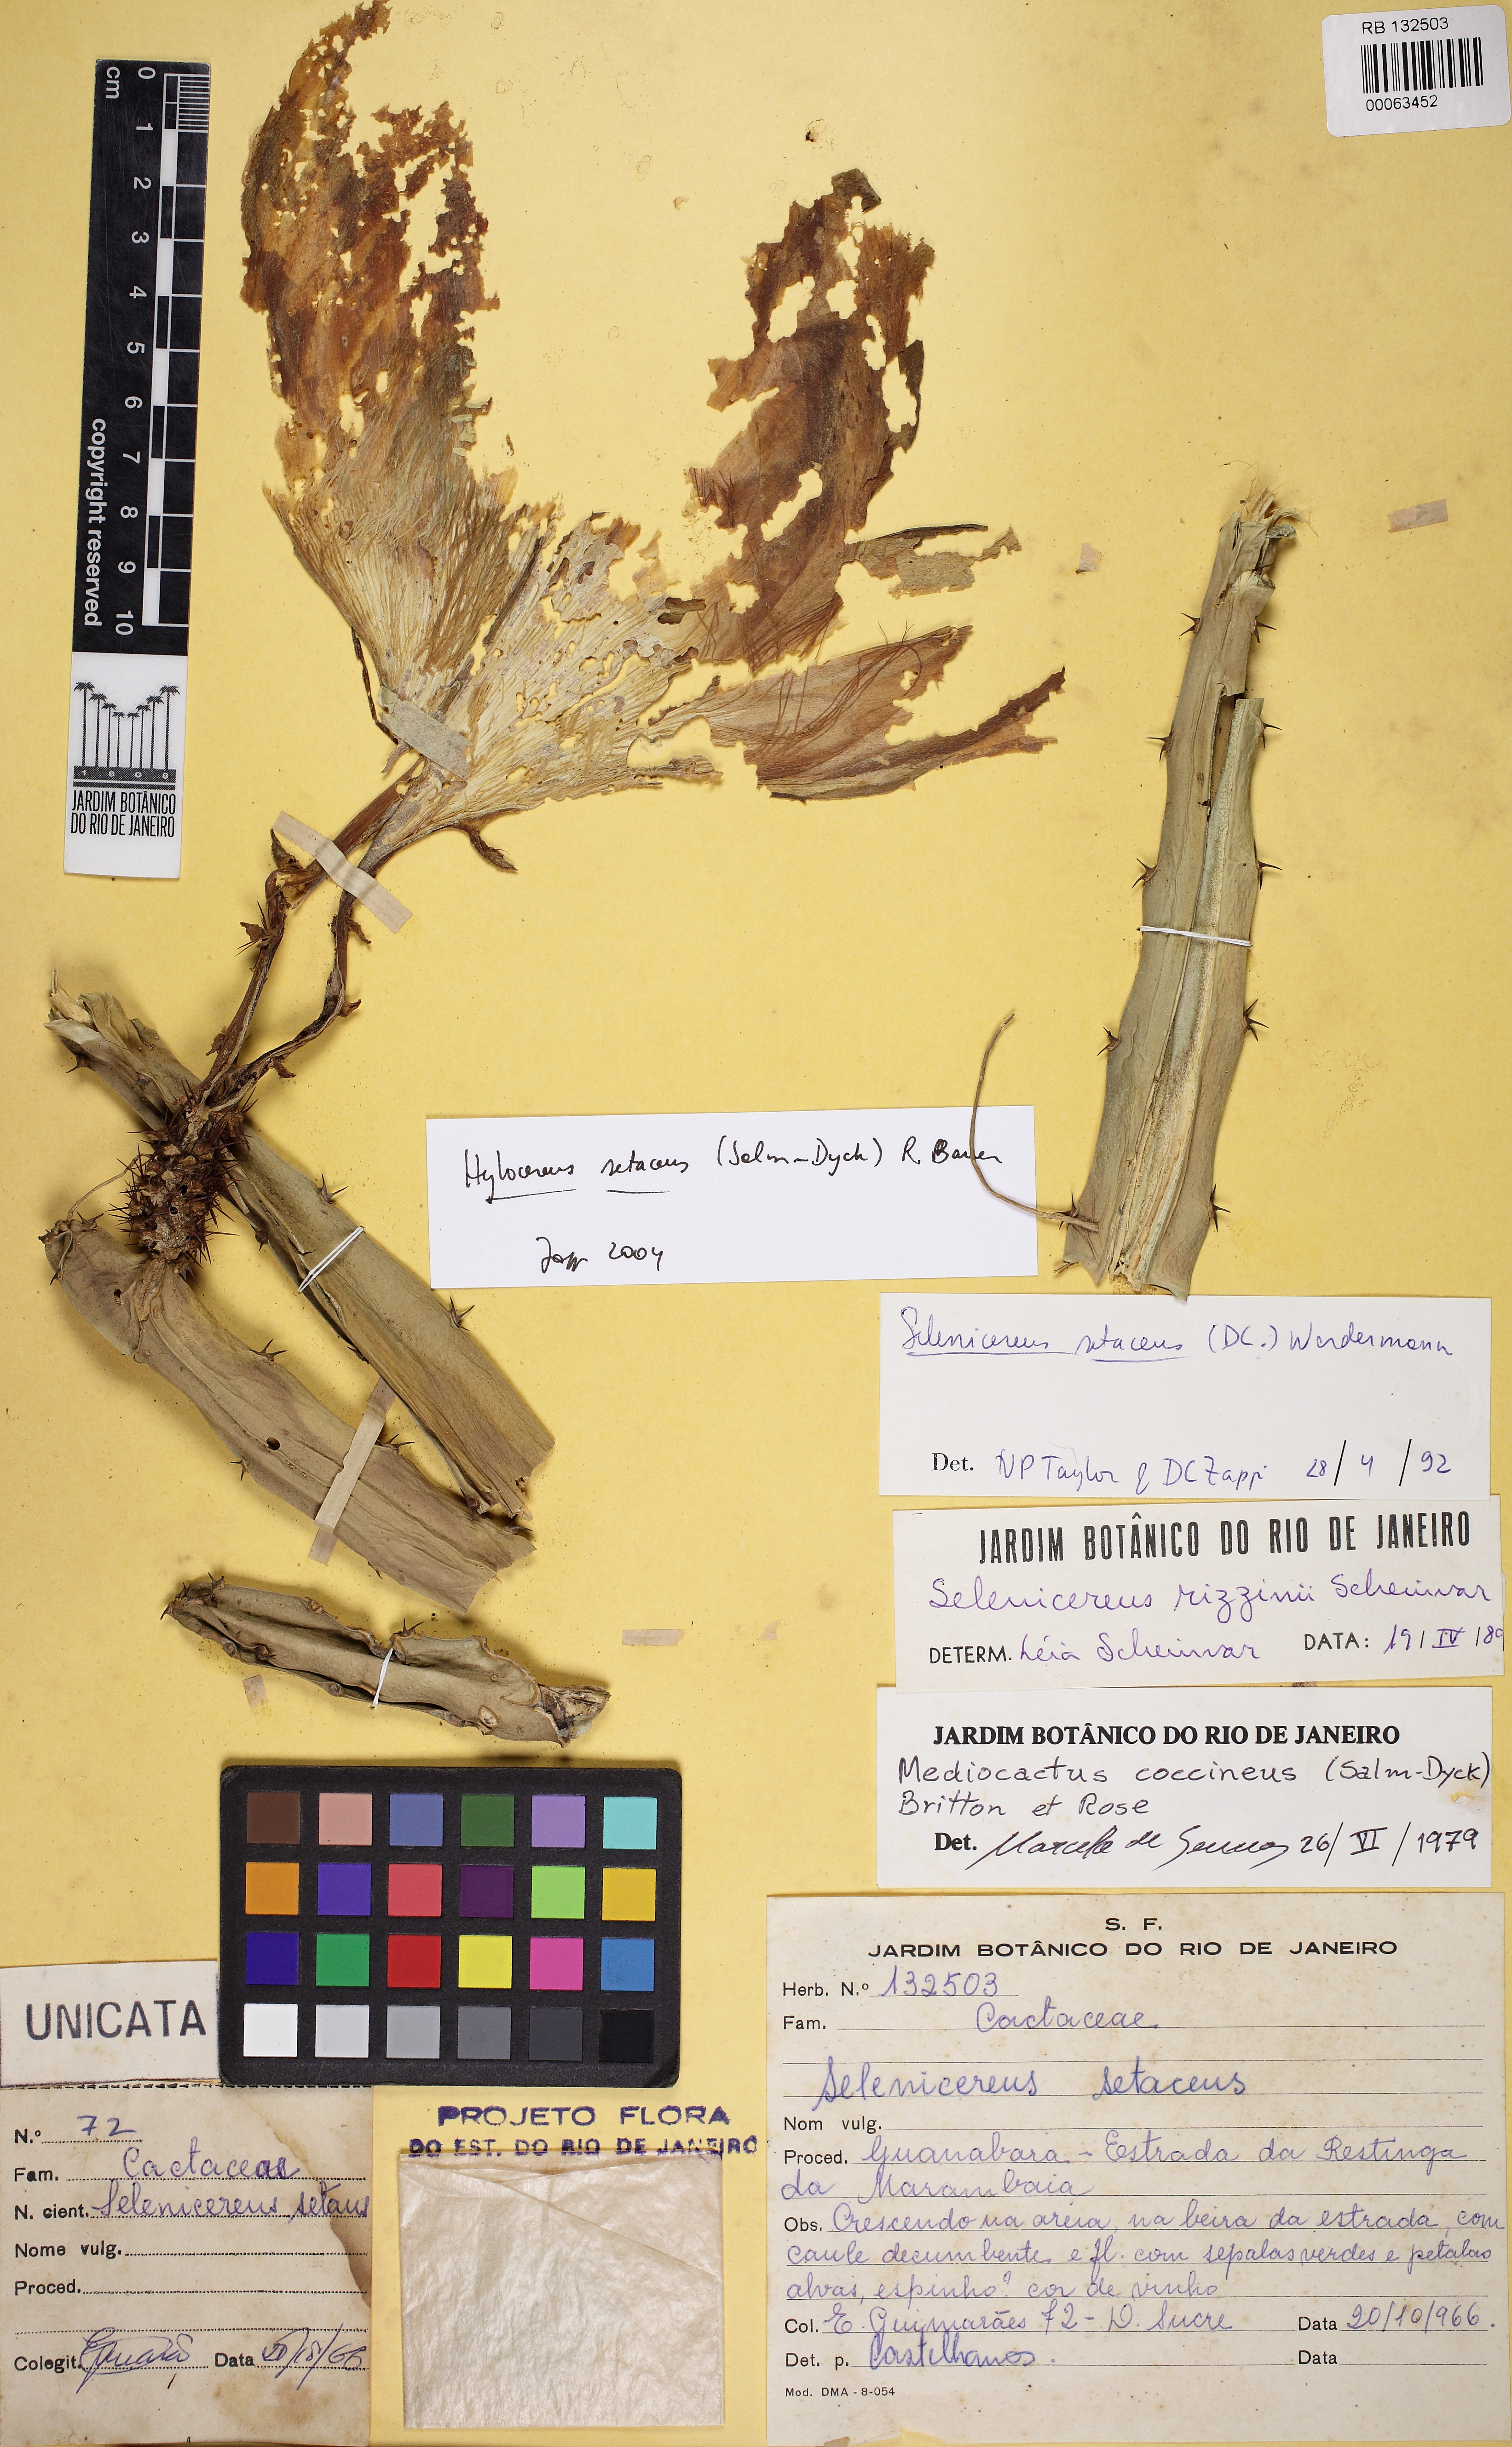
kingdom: Plantae
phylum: Tracheophyta
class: Magnoliopsida
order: Caryophyllales
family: Cactaceae
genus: Selenicereus
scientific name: Selenicereus setaceus
